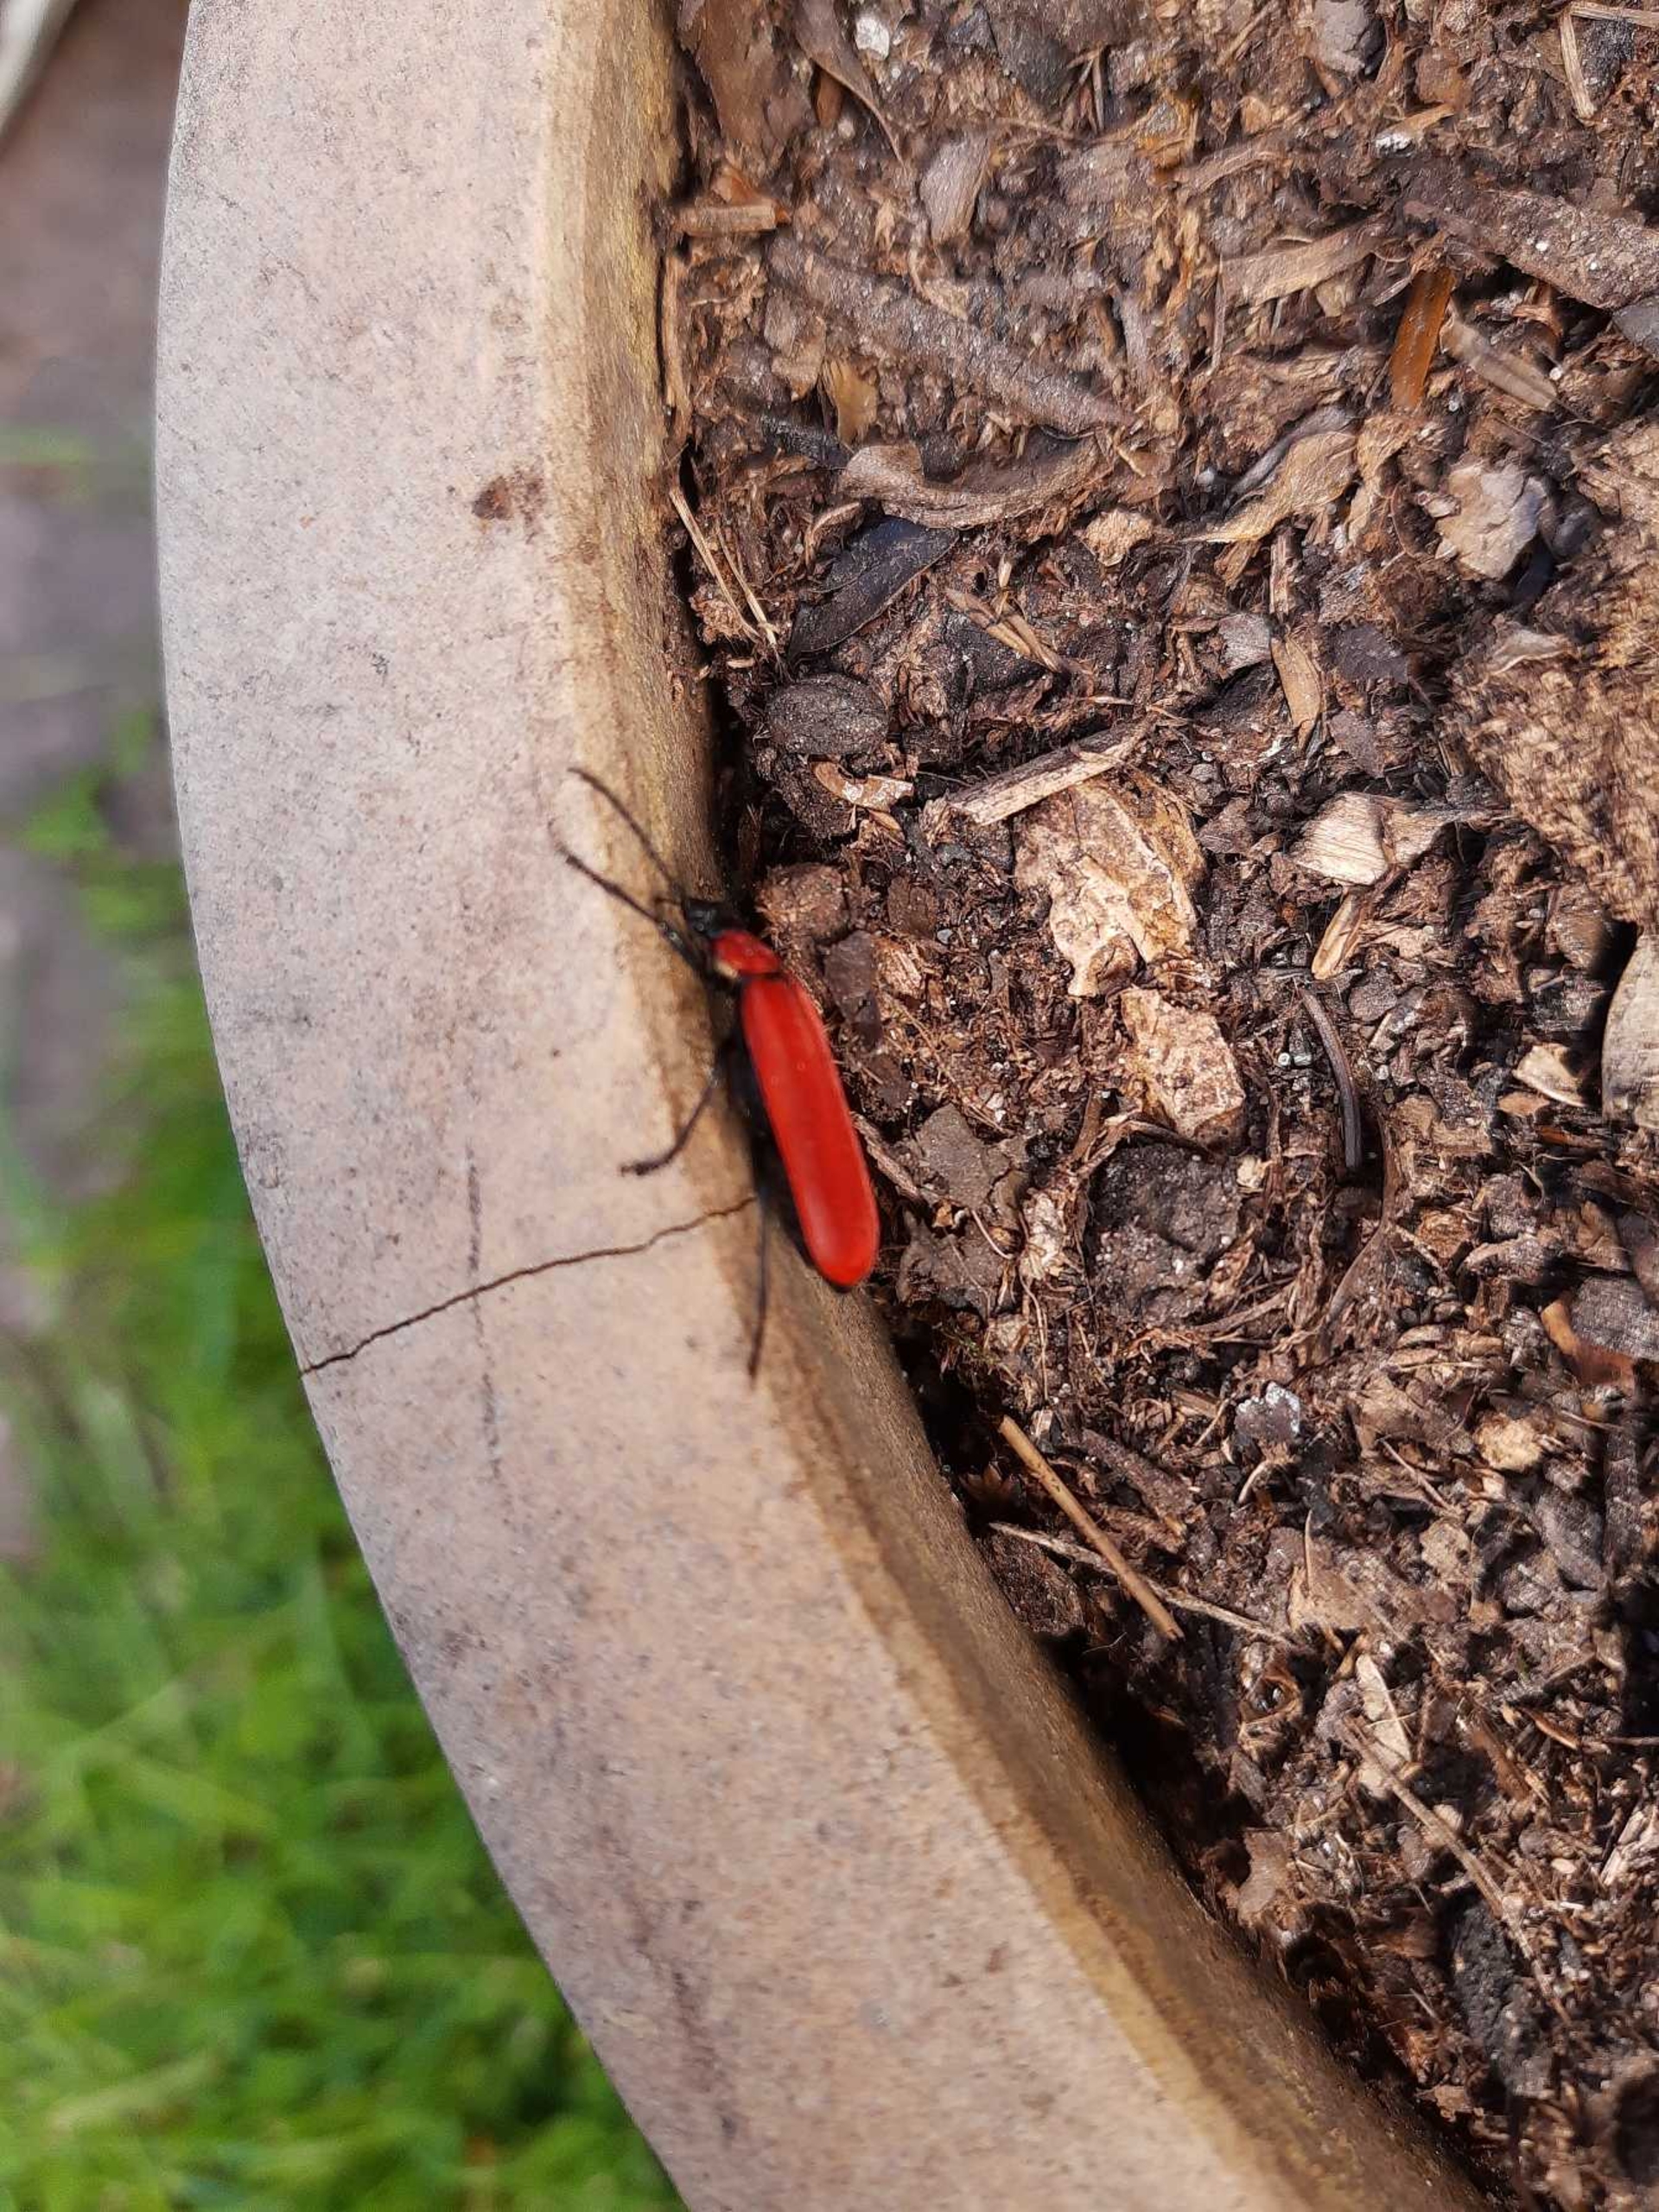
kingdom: Animalia
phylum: Arthropoda
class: Insecta
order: Coleoptera
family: Pyrochroidae
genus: Pyrochroa
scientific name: Pyrochroa coccinea
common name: Sorthovedet kardinalbille
